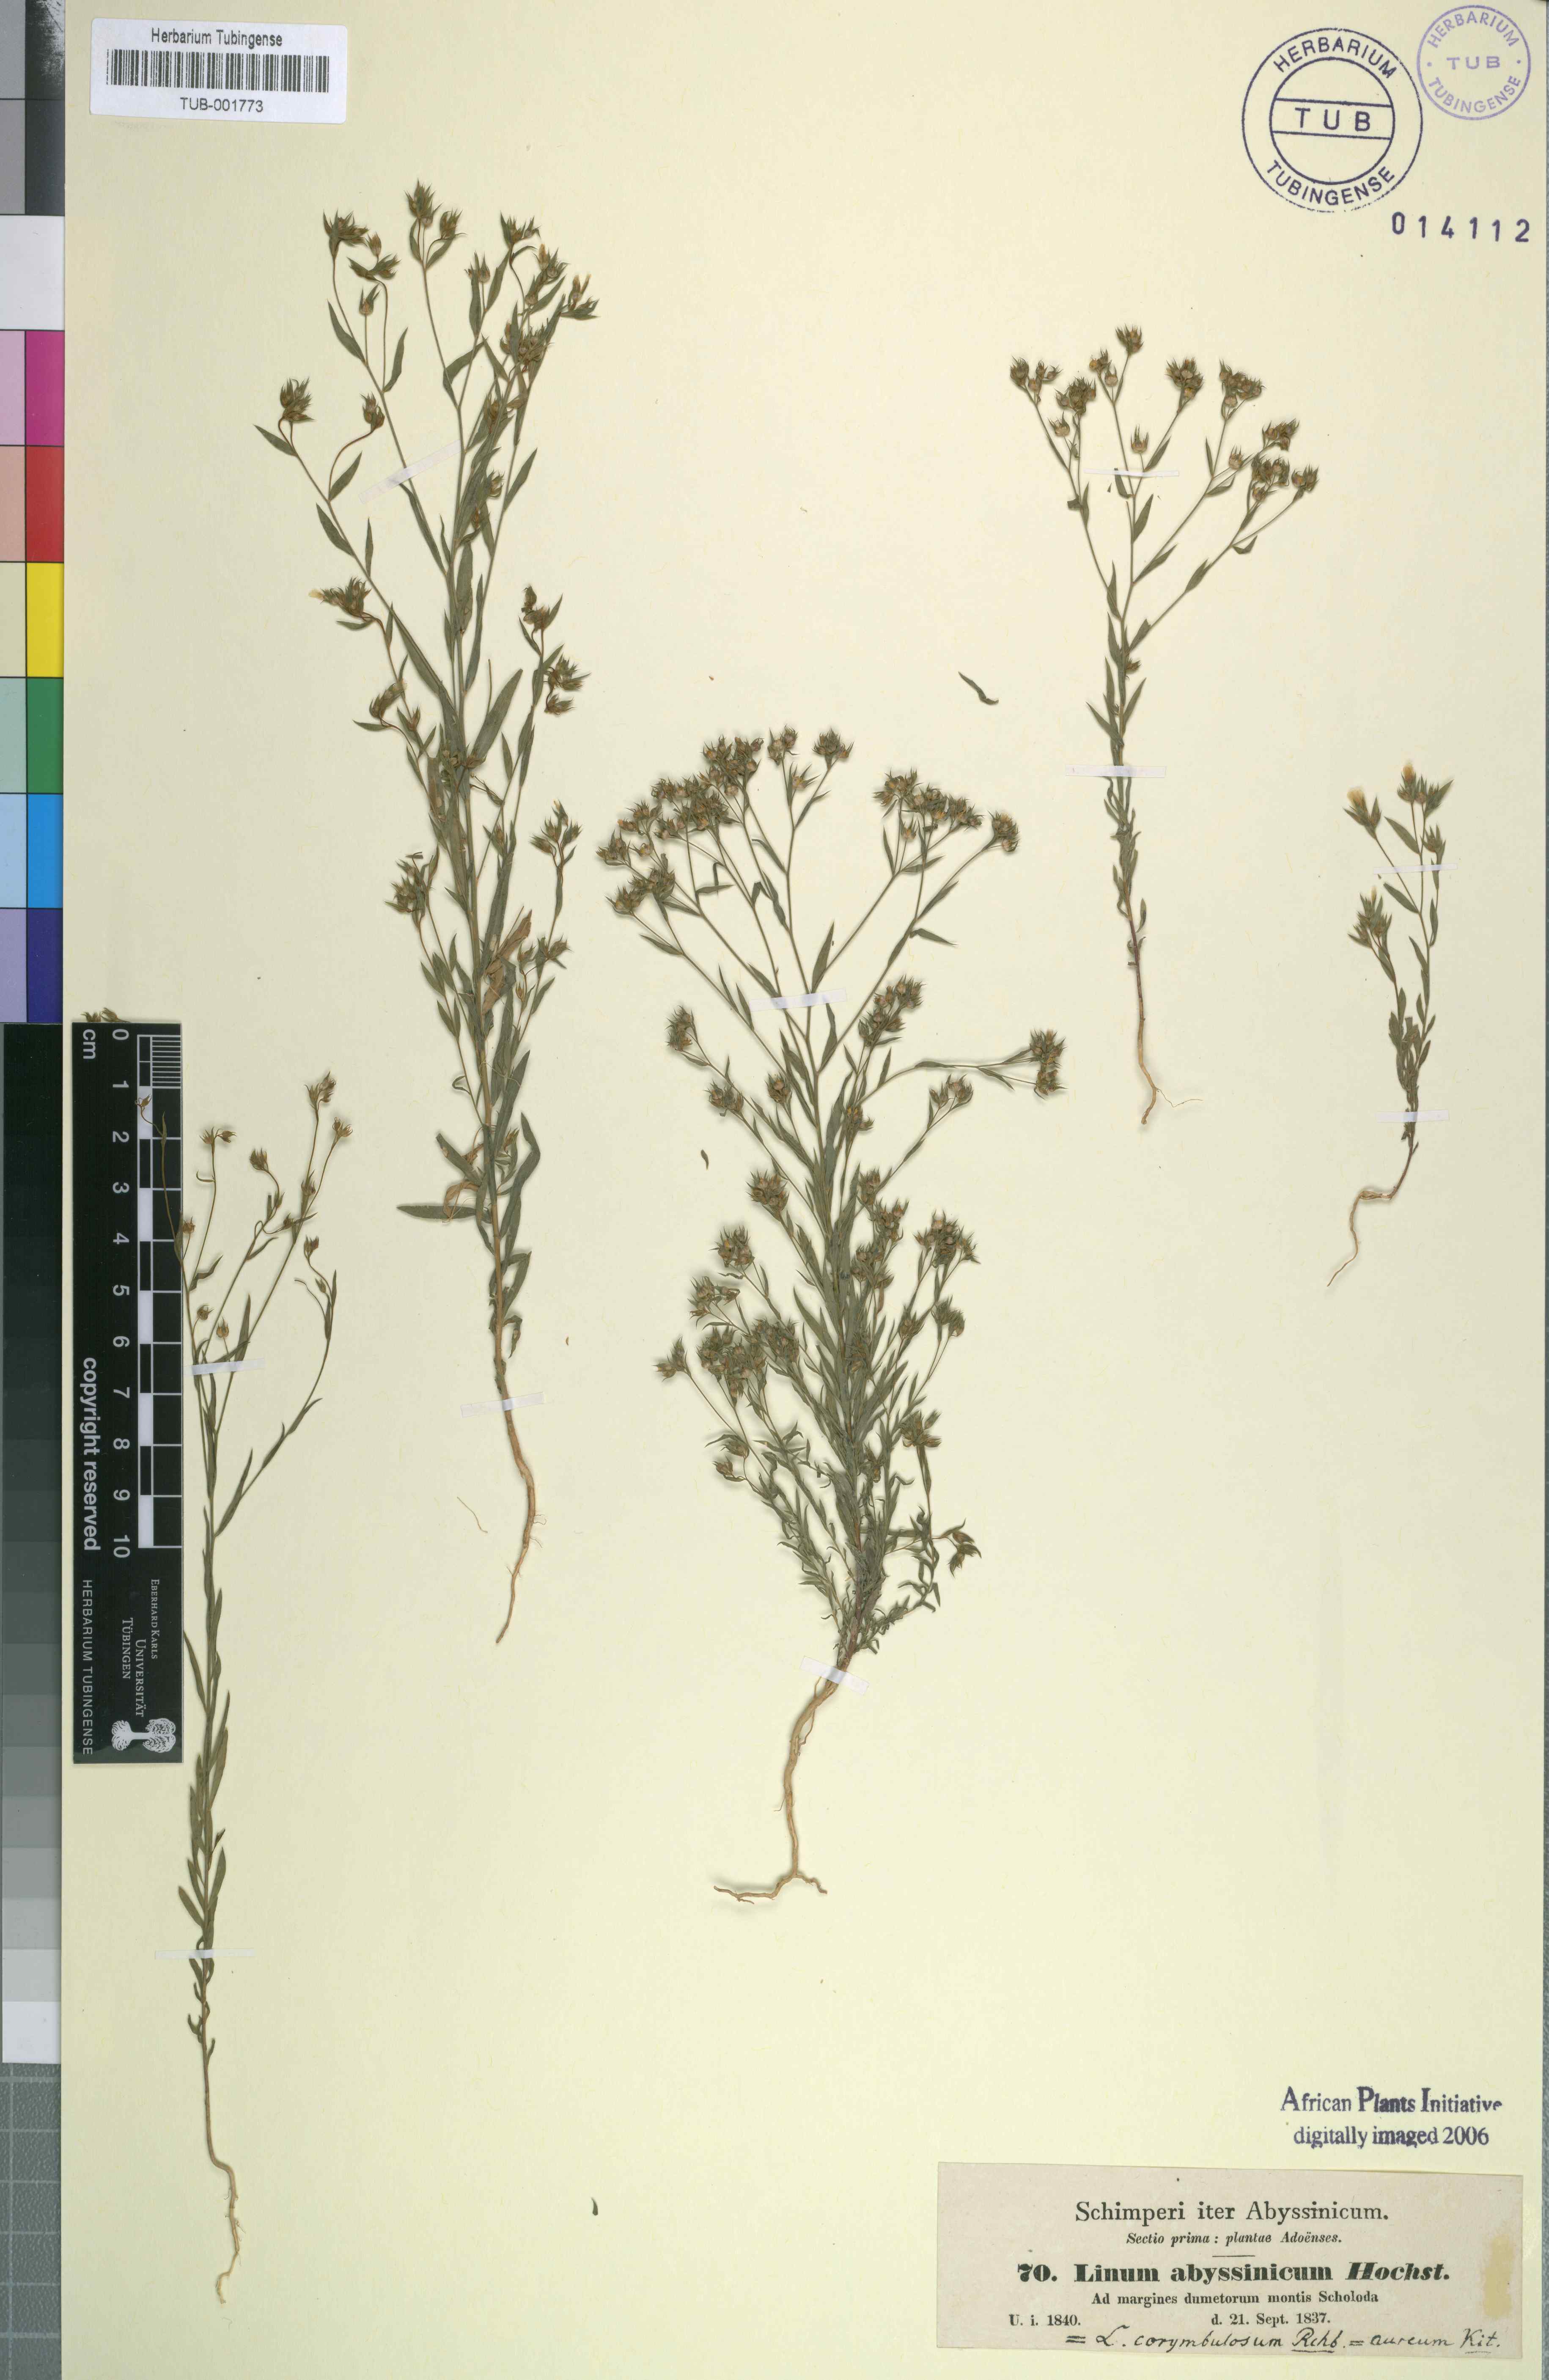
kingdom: Plantae
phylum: Tracheophyta
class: Magnoliopsida
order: Malpighiales
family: Linaceae
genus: Linum
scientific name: Linum strictum
